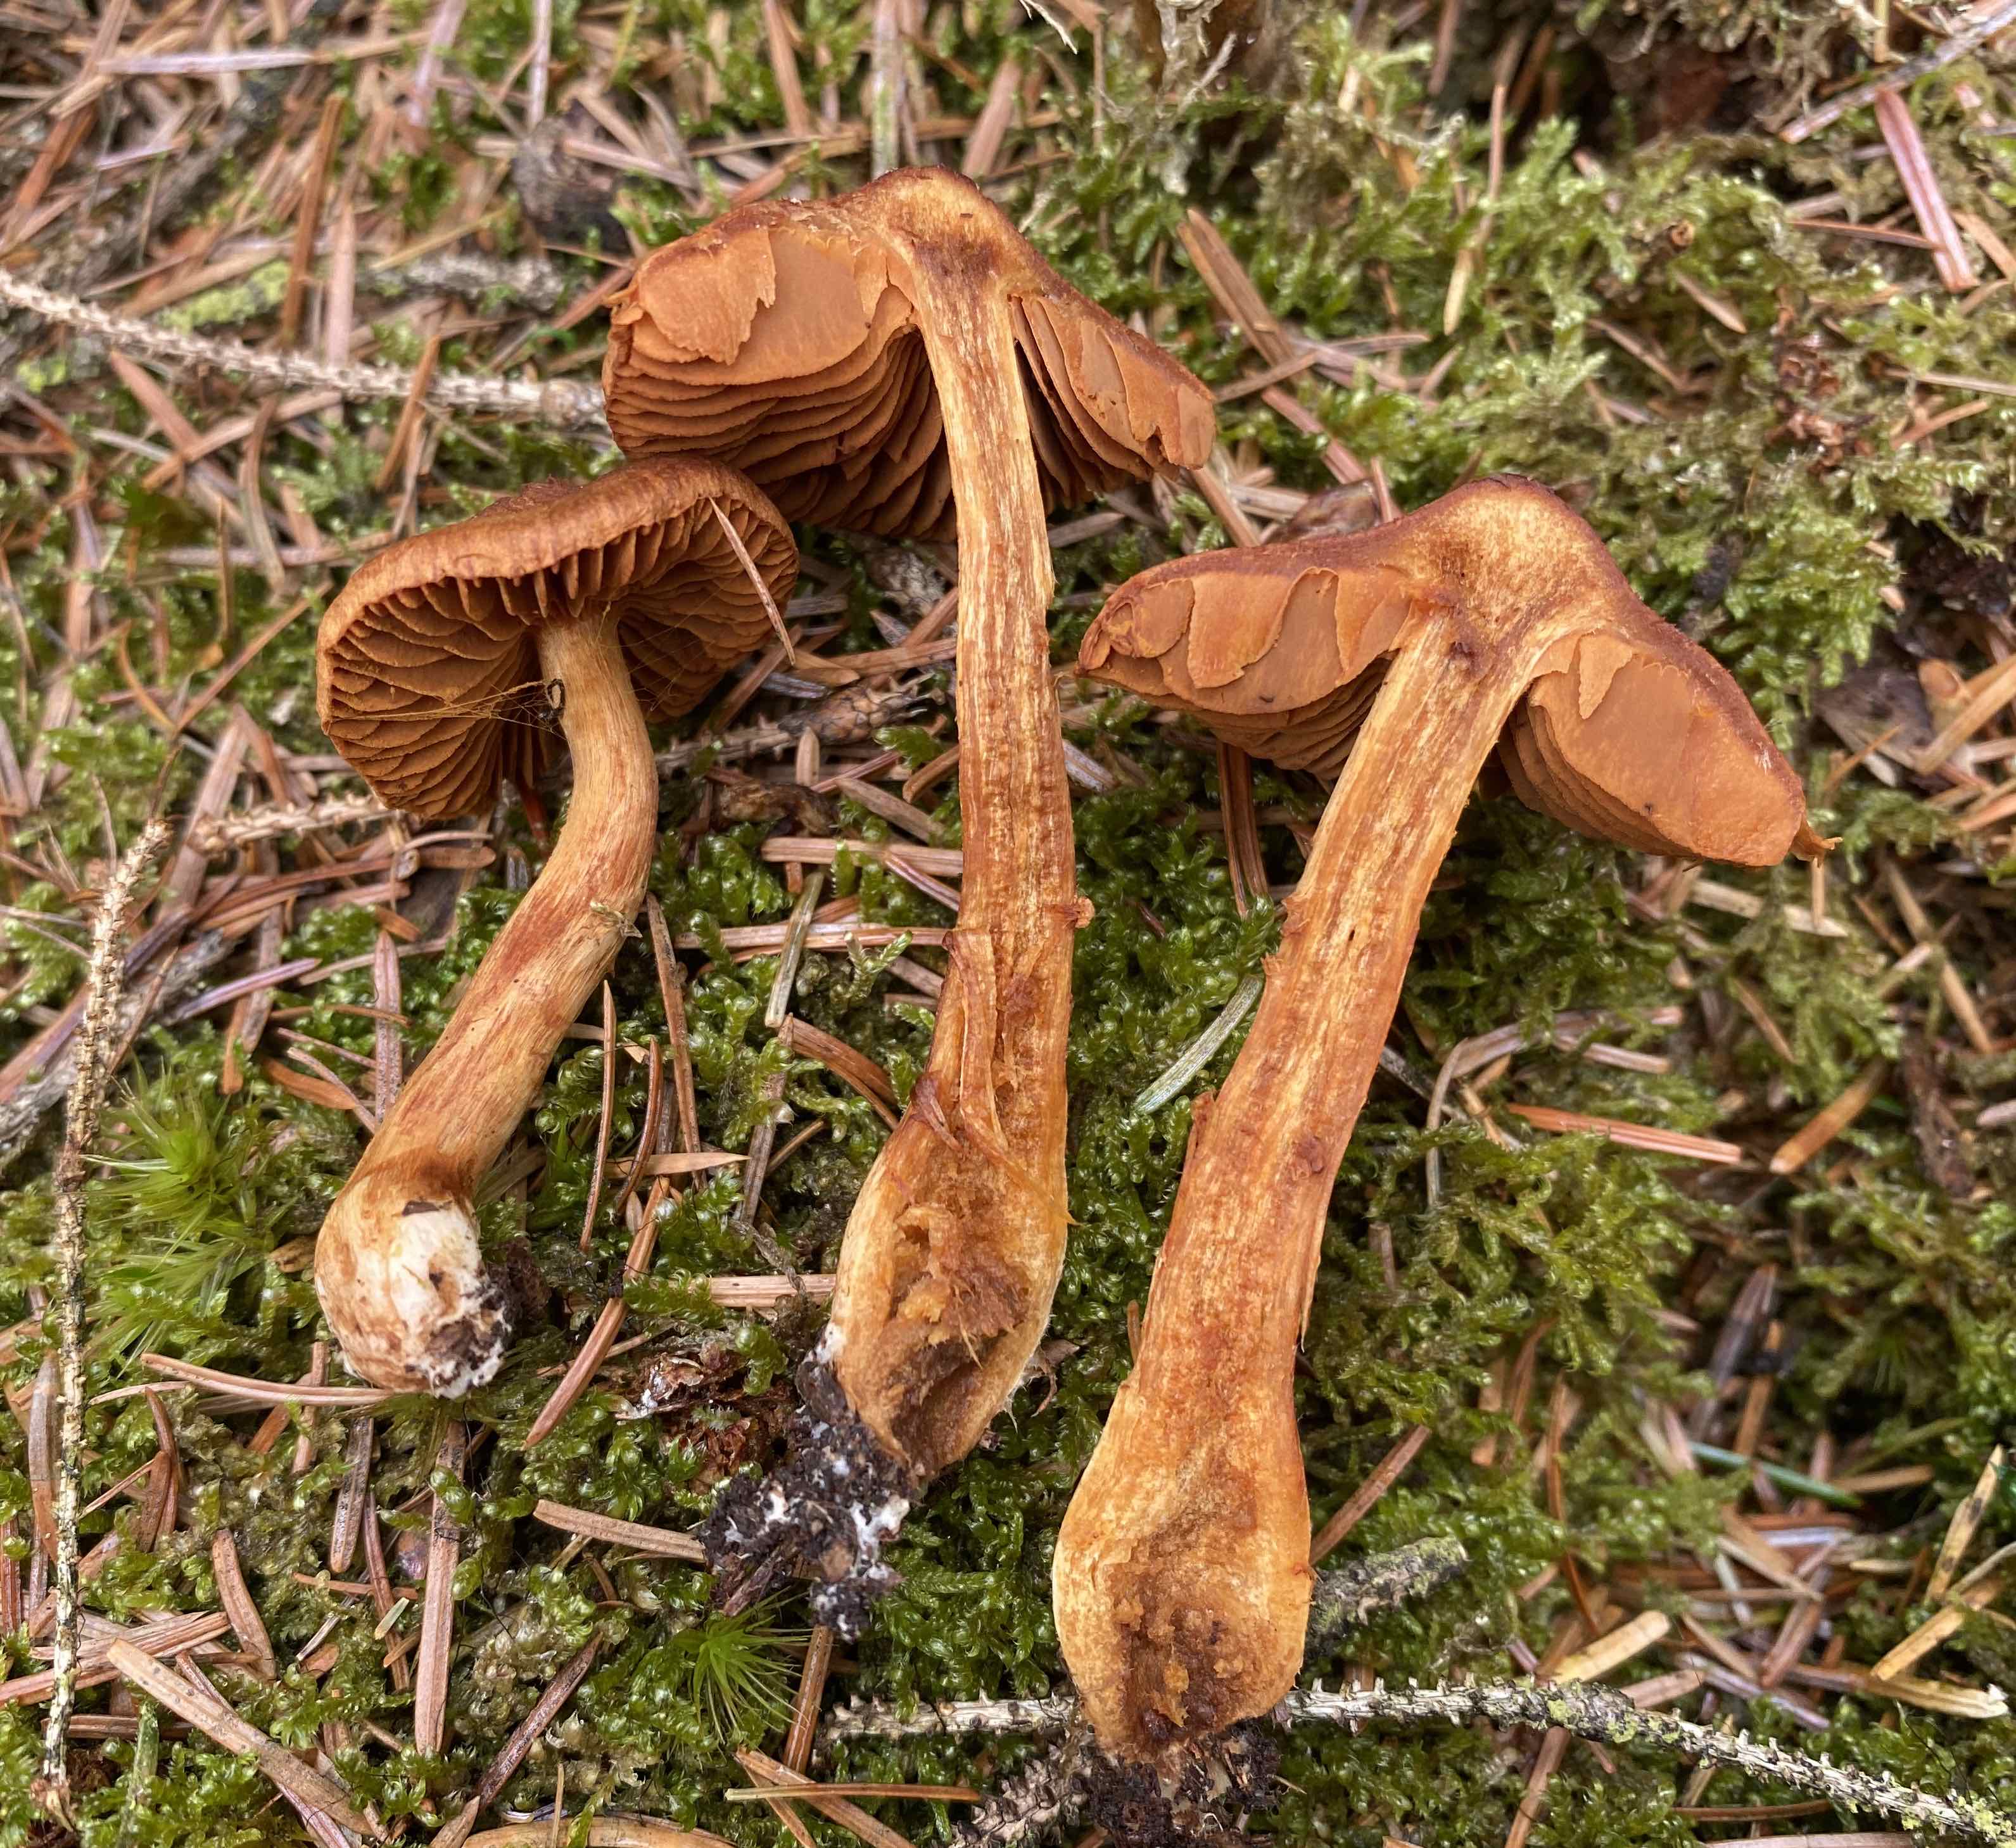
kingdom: Fungi
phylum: Basidiomycota
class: Agaricomycetes
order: Agaricales
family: Cortinariaceae
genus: Cortinarius
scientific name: Cortinarius rubellus
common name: puklet gift-slørhat
